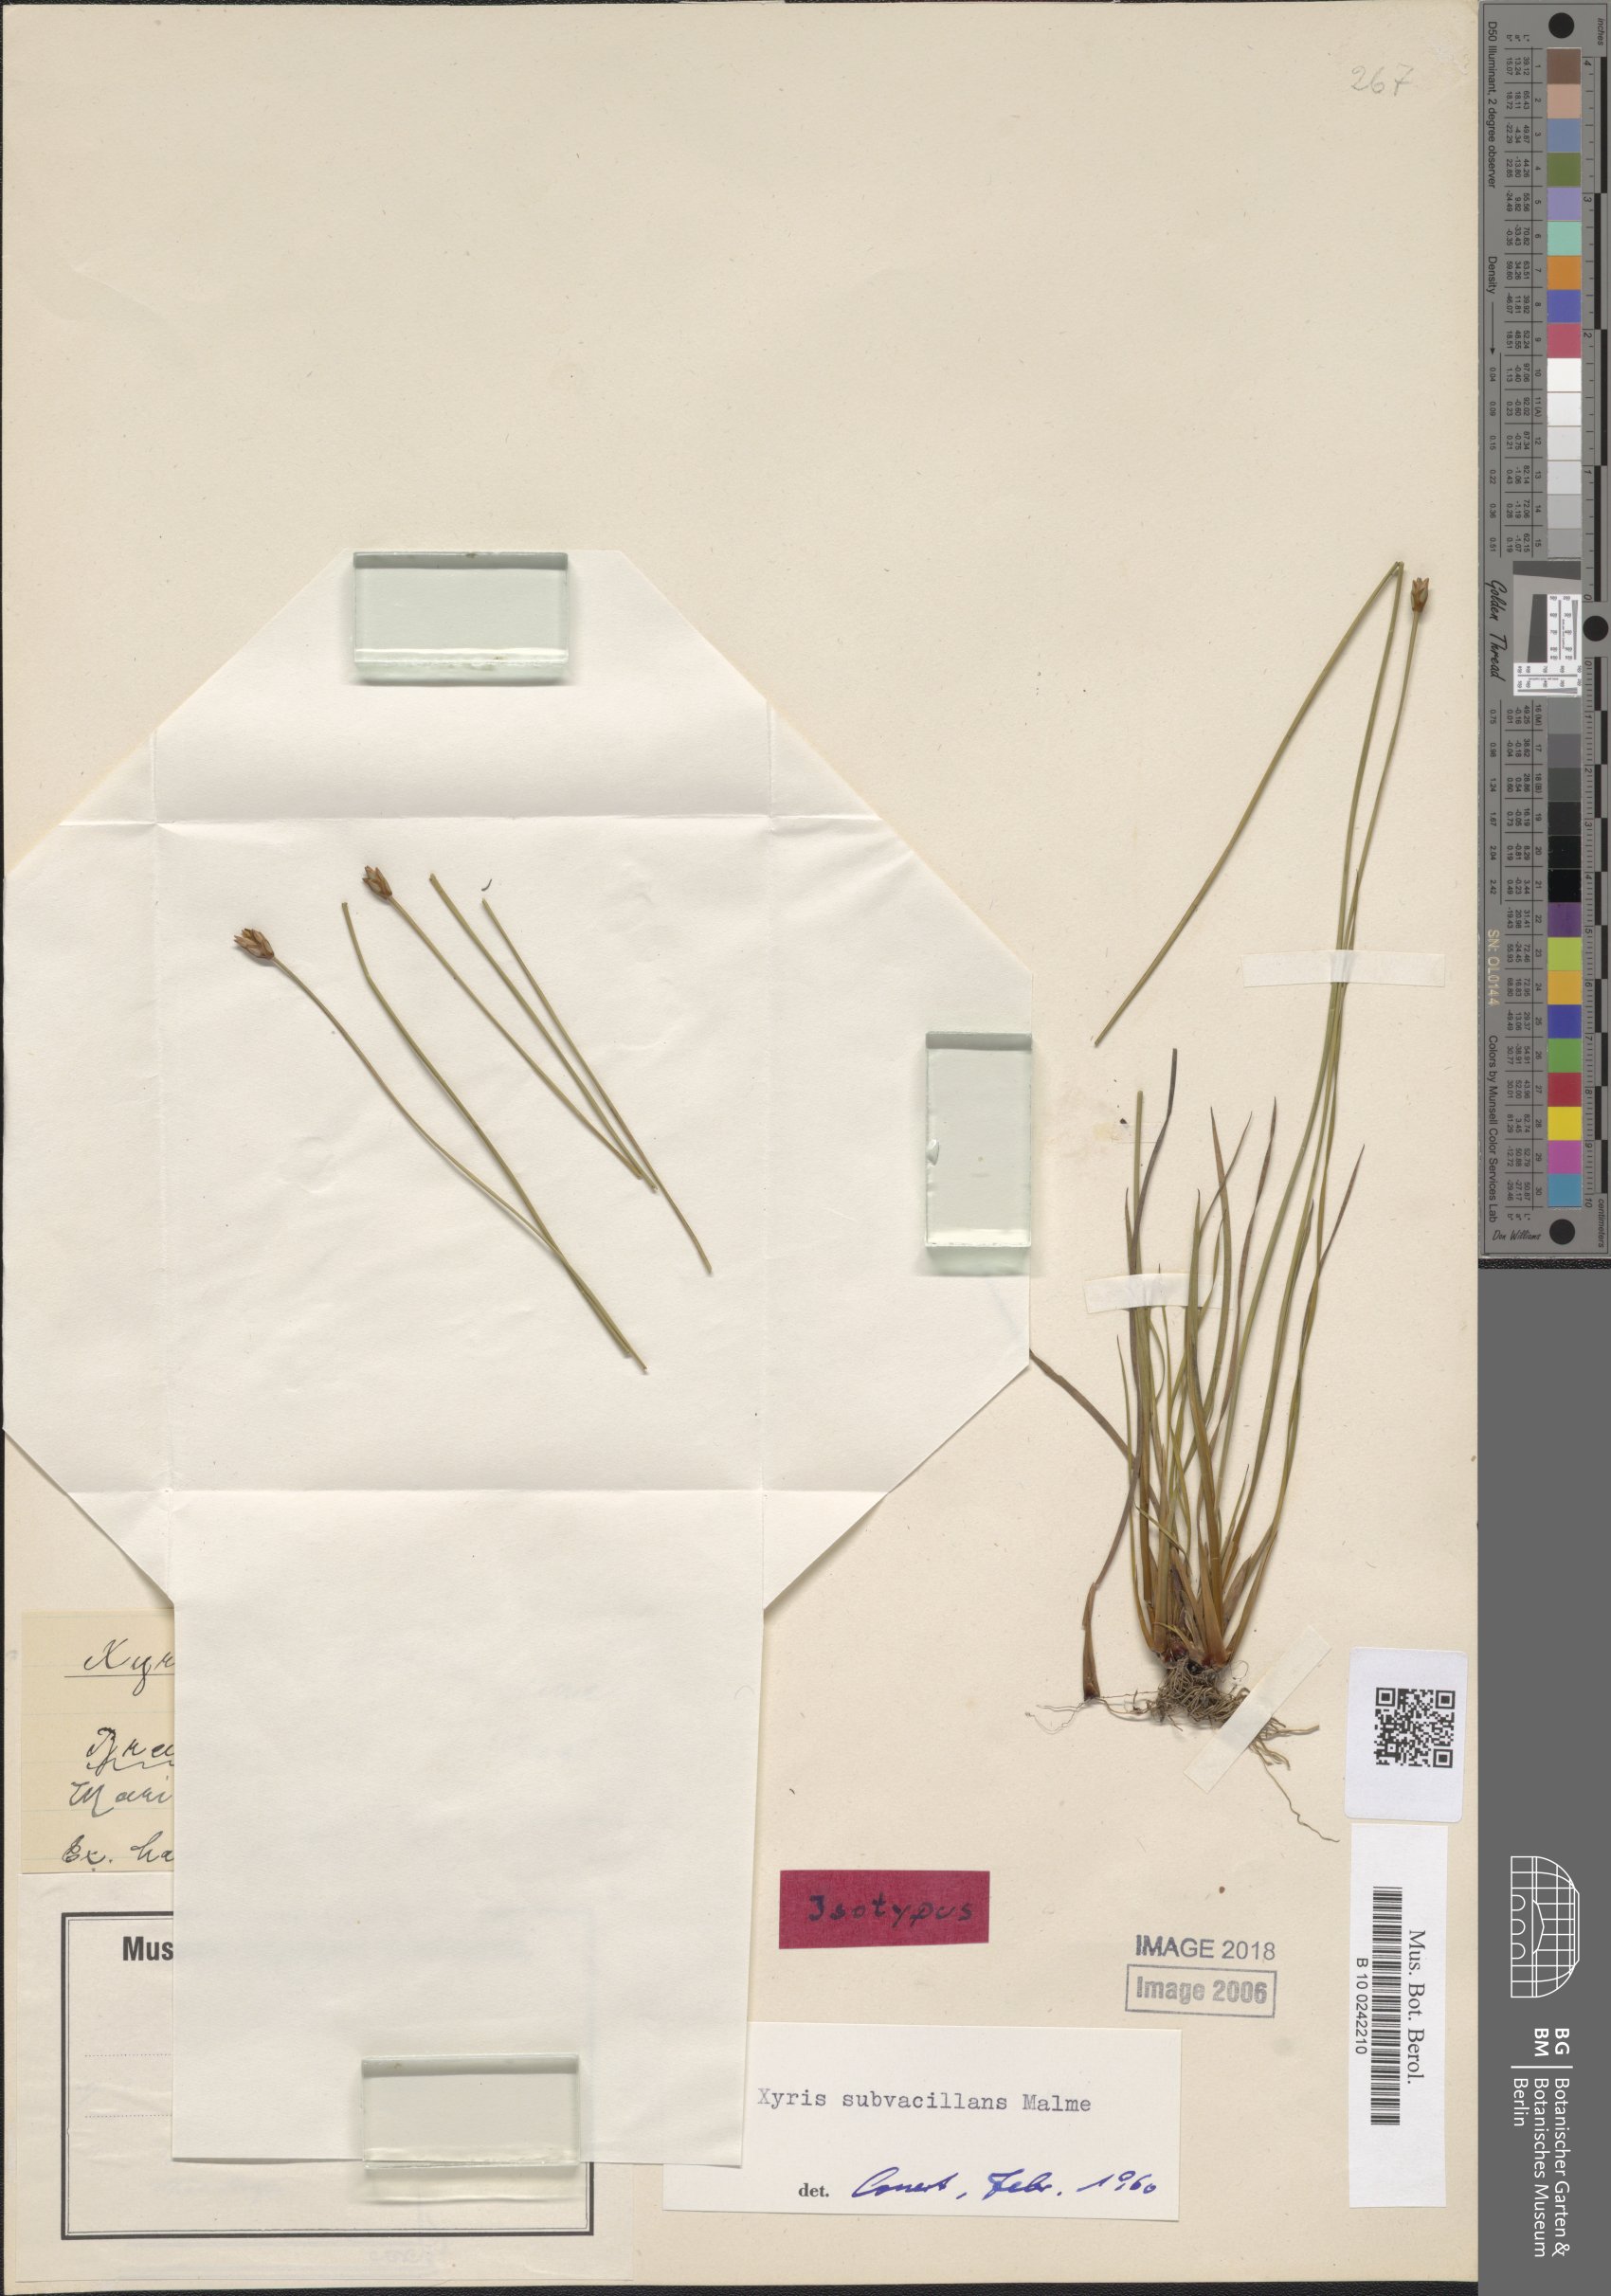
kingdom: Plantae
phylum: Tracheophyta
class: Liliopsida
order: Poales
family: Xyridaceae
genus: Xyris
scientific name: Xyris filifolia
